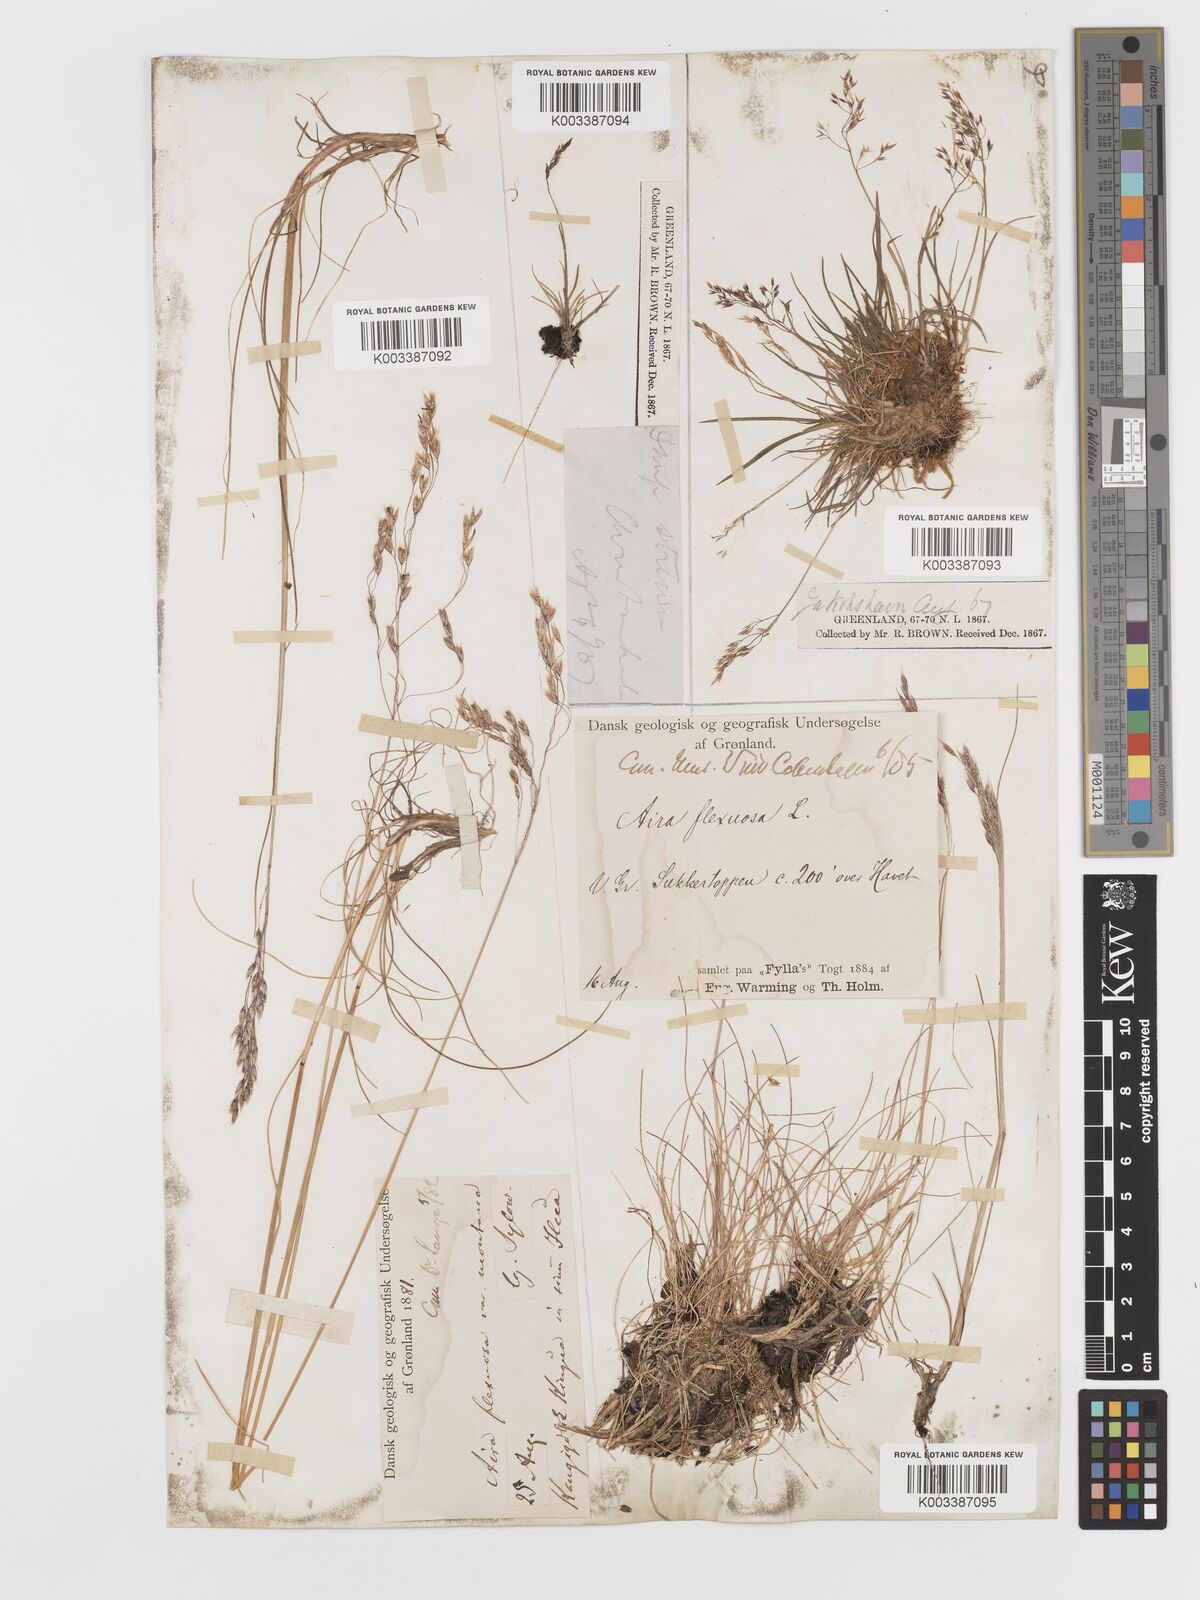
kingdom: Plantae
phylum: Tracheophyta
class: Liliopsida
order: Poales
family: Poaceae
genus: Avenella
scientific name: Avenella flexuosa
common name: Wavy hairgrass
